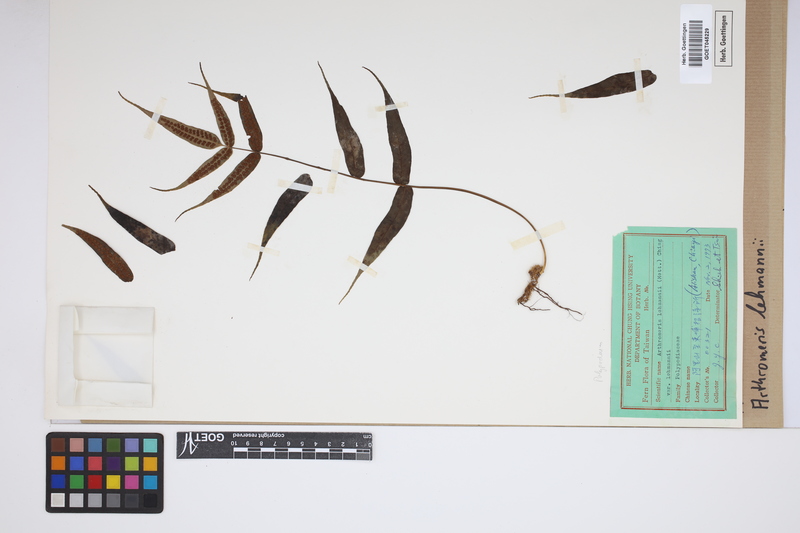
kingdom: Plantae
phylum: Tracheophyta
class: Polypodiopsida
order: Polypodiales
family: Polypodiaceae
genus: Selliguea
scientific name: Selliguea lehmannii
